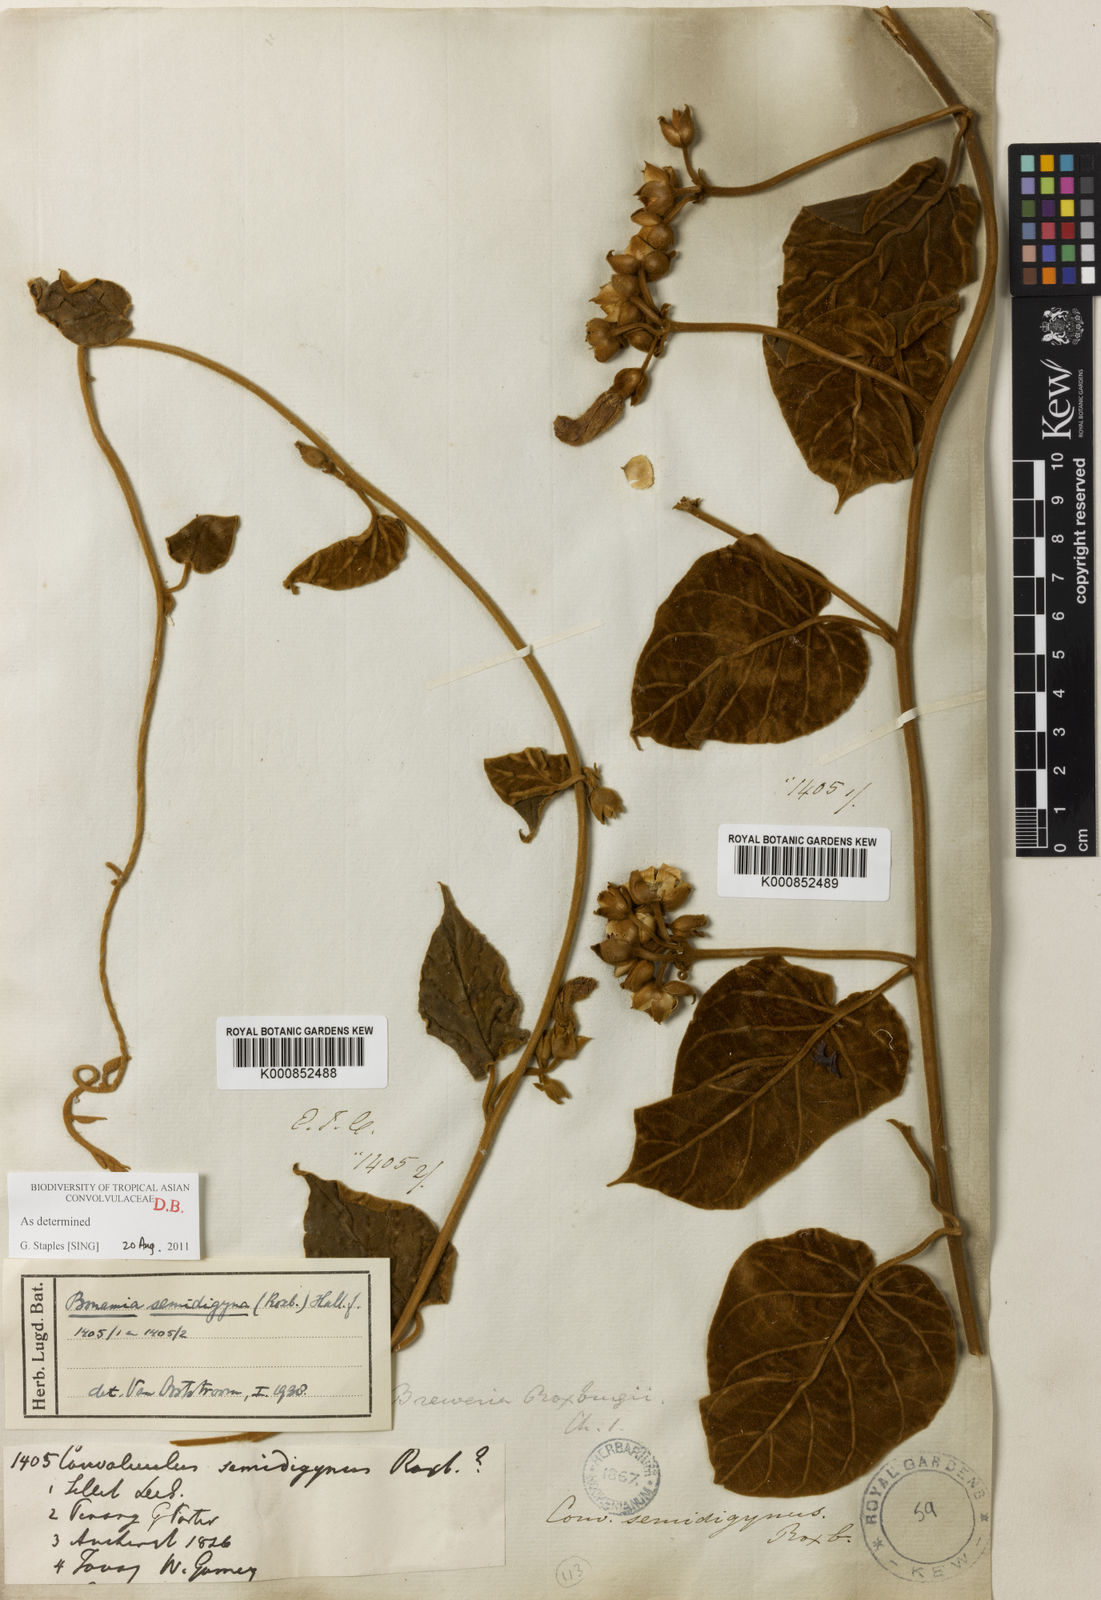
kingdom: Plantae
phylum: Tracheophyta
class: Magnoliopsida
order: Solanales
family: Convolvulaceae
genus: Bonamia
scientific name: Bonamia semidigyna
